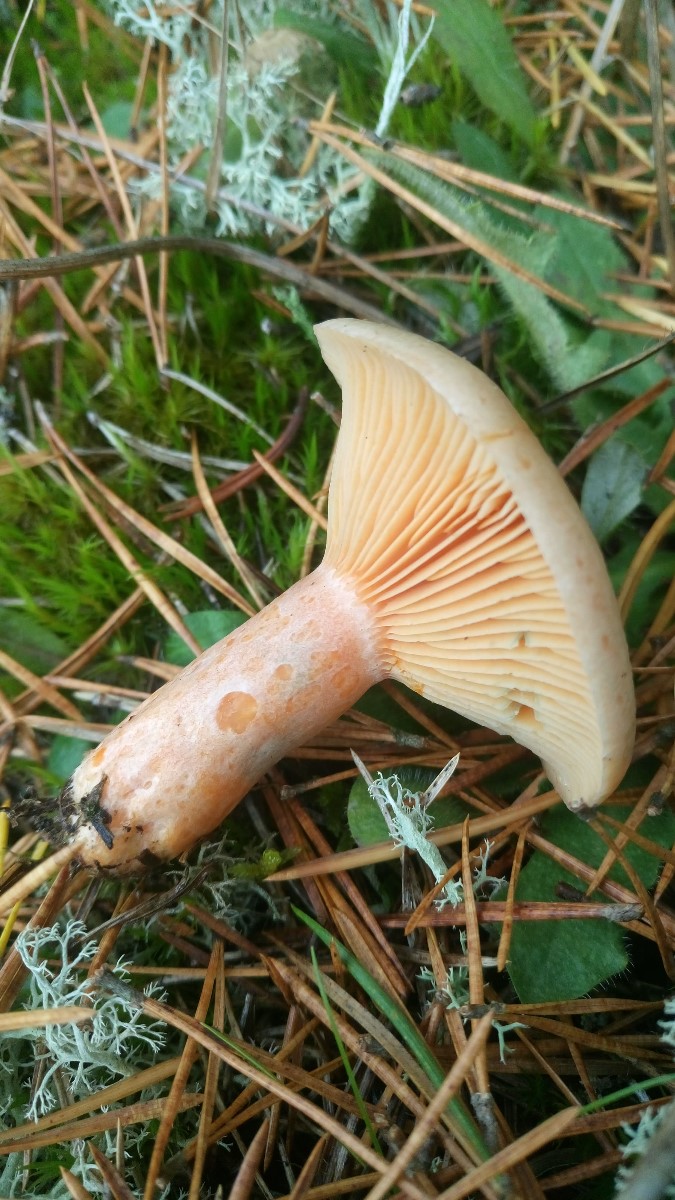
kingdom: Fungi
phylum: Basidiomycota
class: Agaricomycetes
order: Russulales
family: Russulaceae
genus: Lactarius
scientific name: Lactarius deliciosus
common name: velsmagende mælkehat
